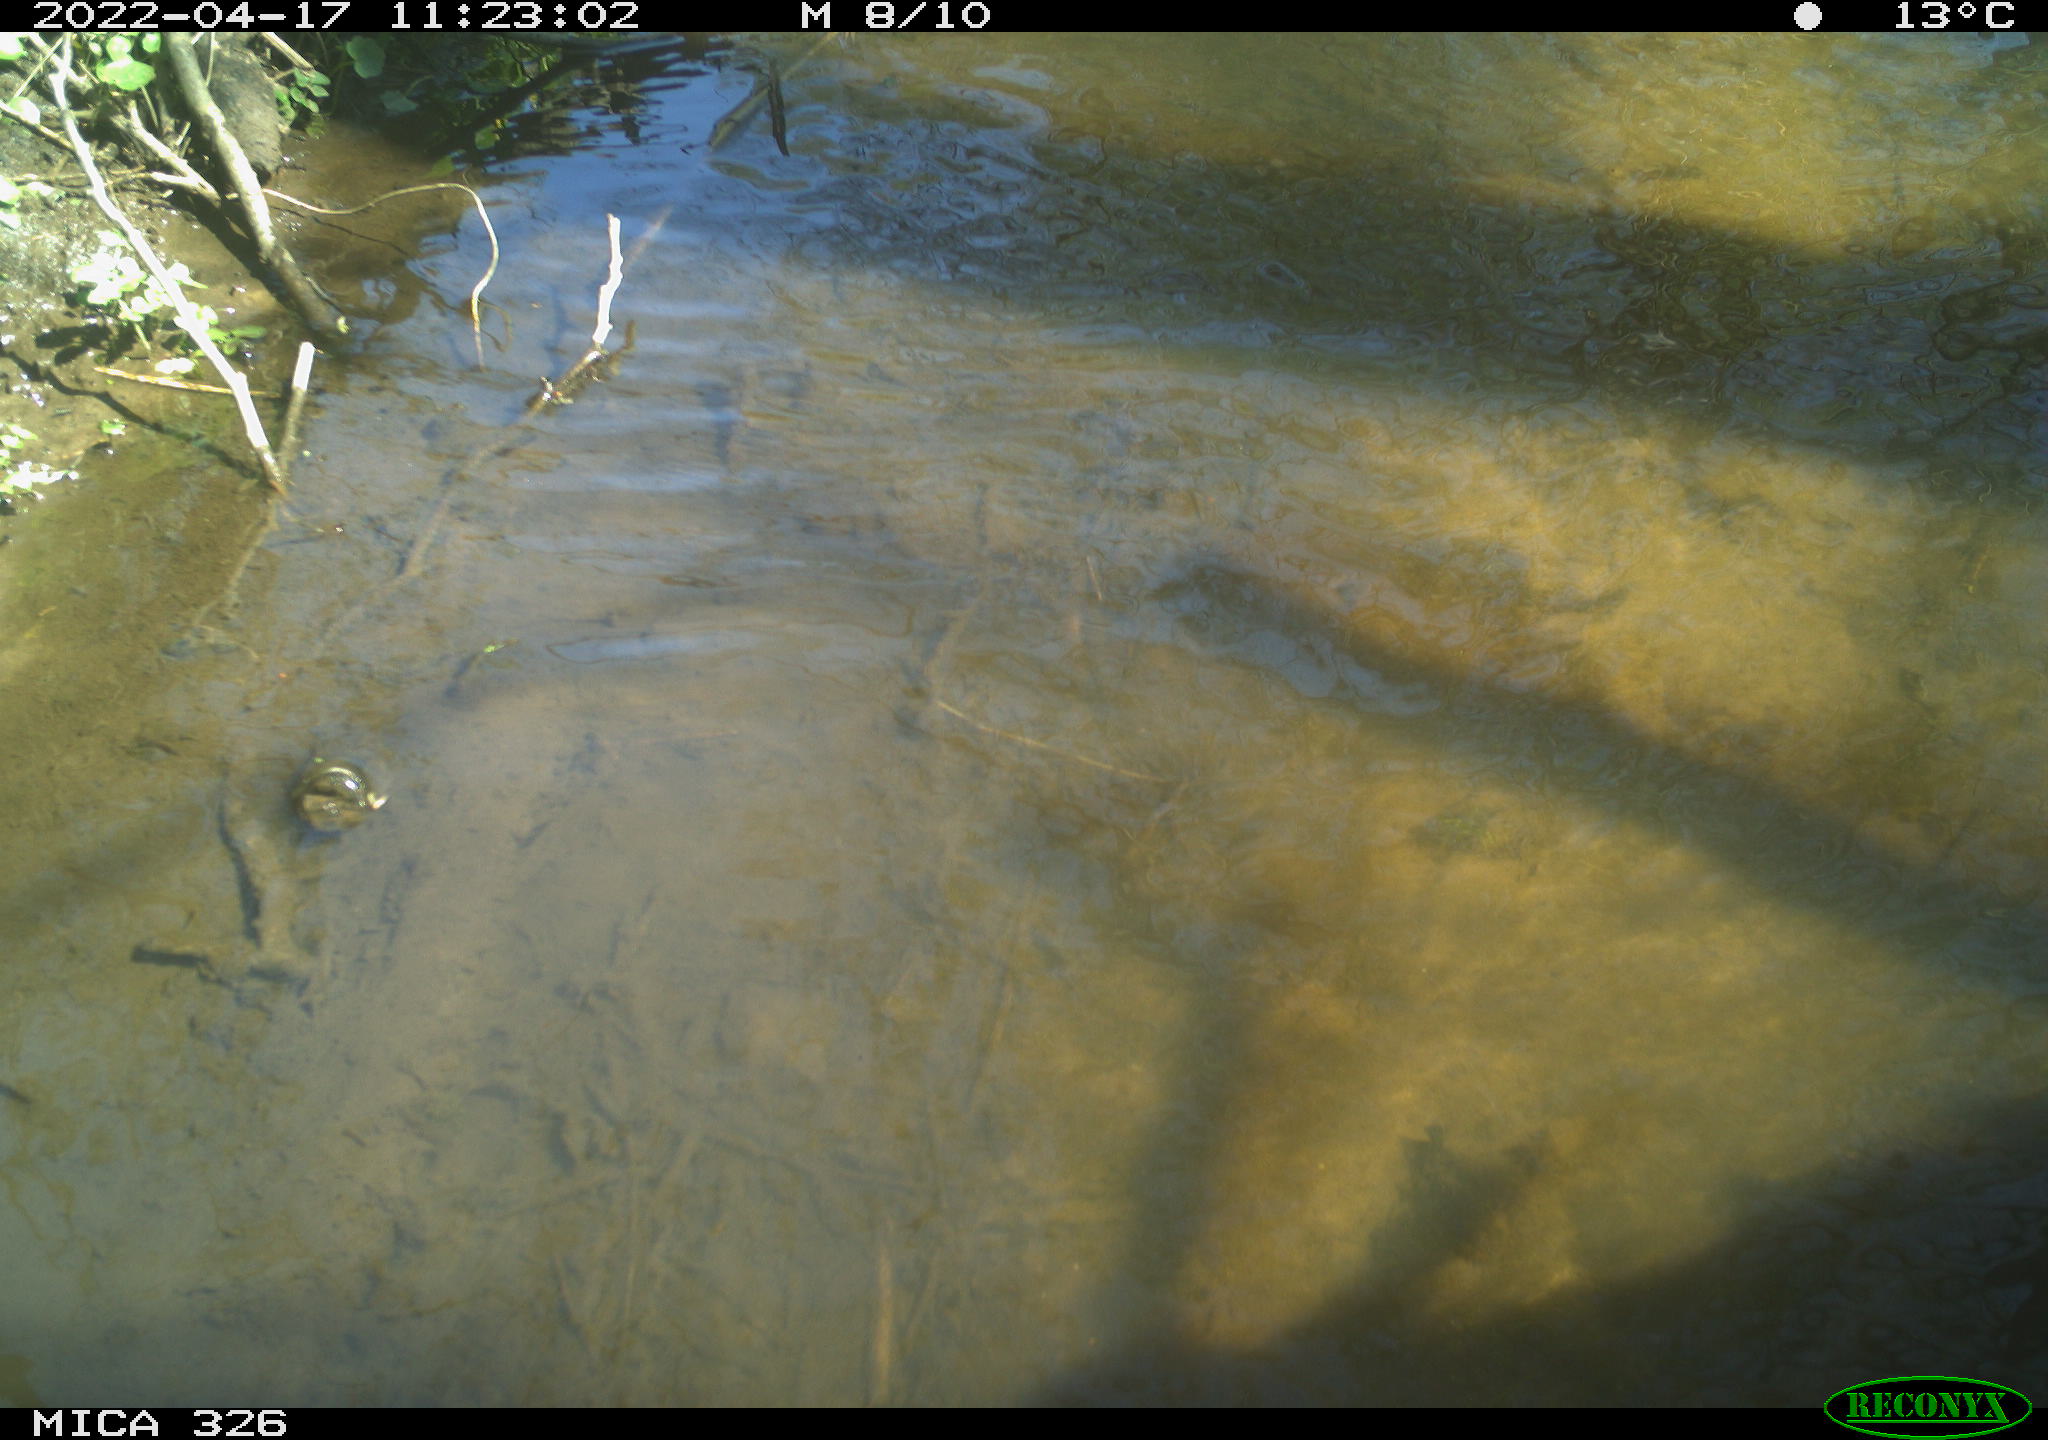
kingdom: Animalia
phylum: Chordata
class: Mammalia
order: Rodentia
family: Cricetidae
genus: Ondatra
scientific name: Ondatra zibethicus
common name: Muskrat
